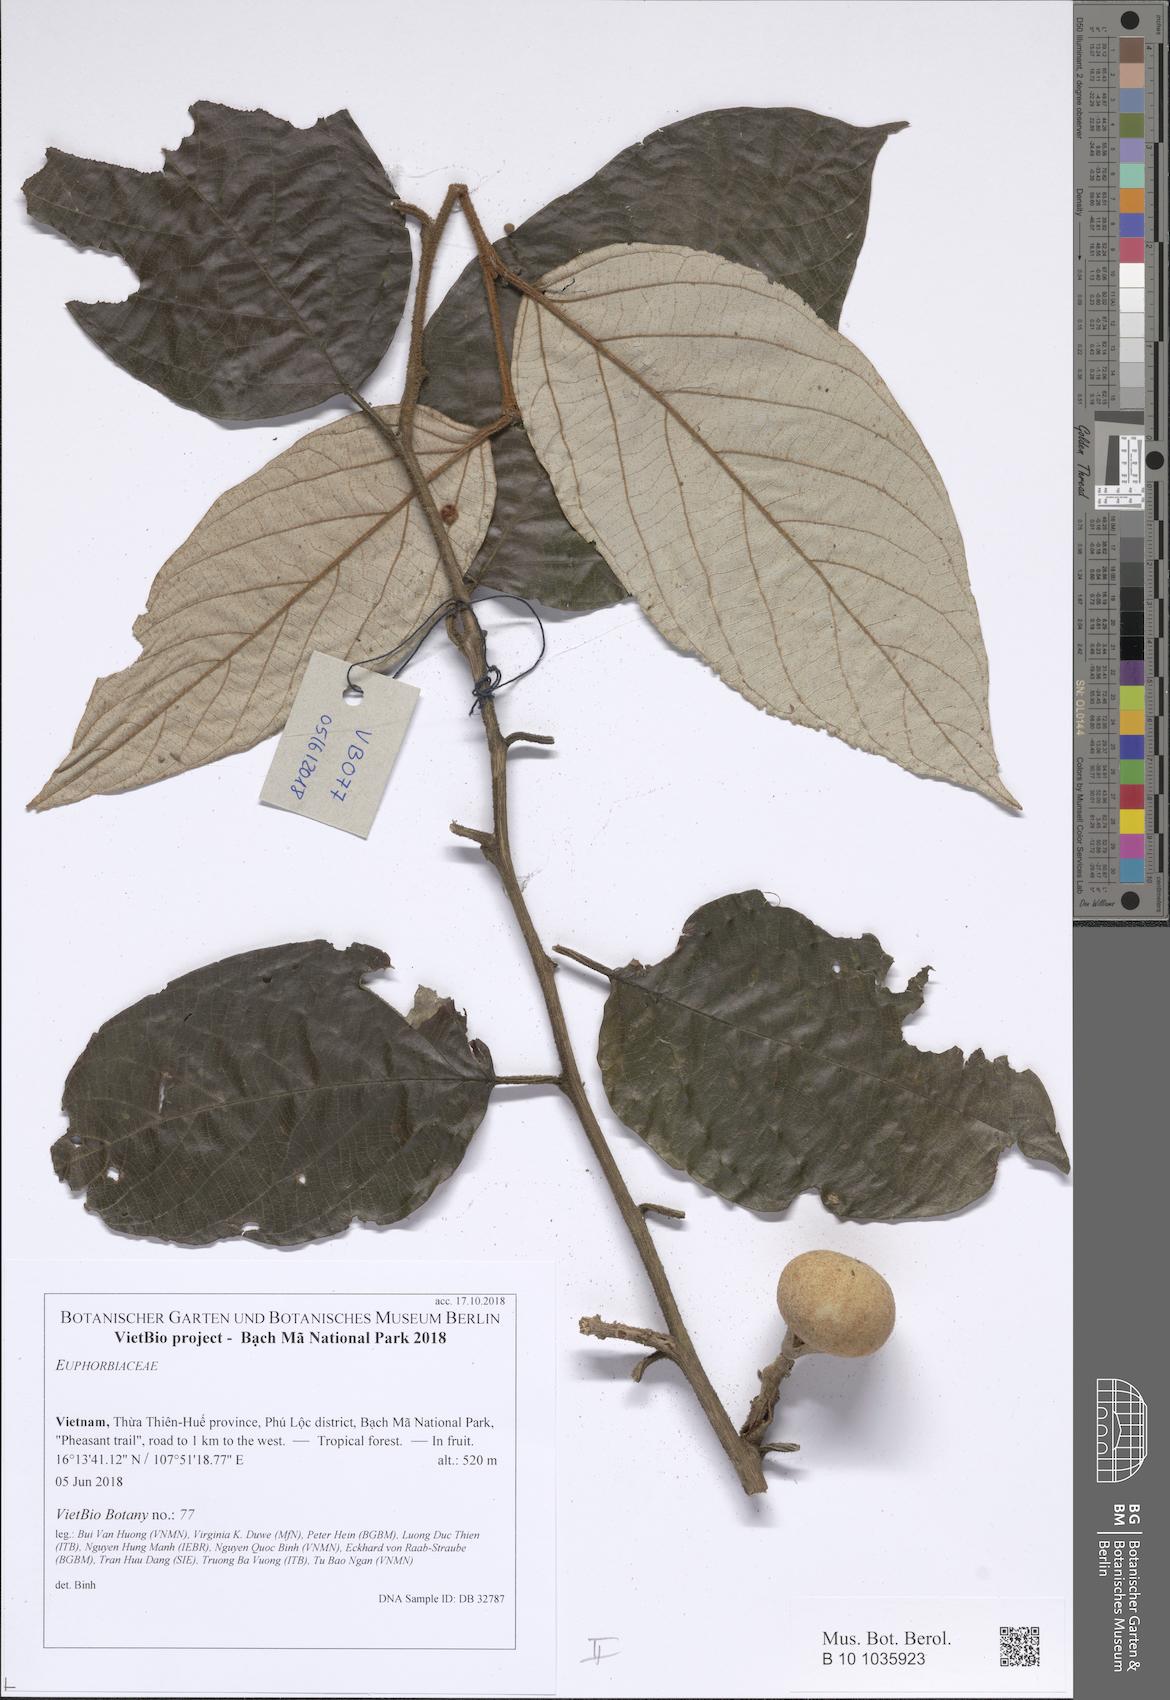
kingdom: Plantae
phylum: Tracheophyta
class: Magnoliopsida
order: Malpighiales
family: Euphorbiaceae
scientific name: Euphorbiaceae
